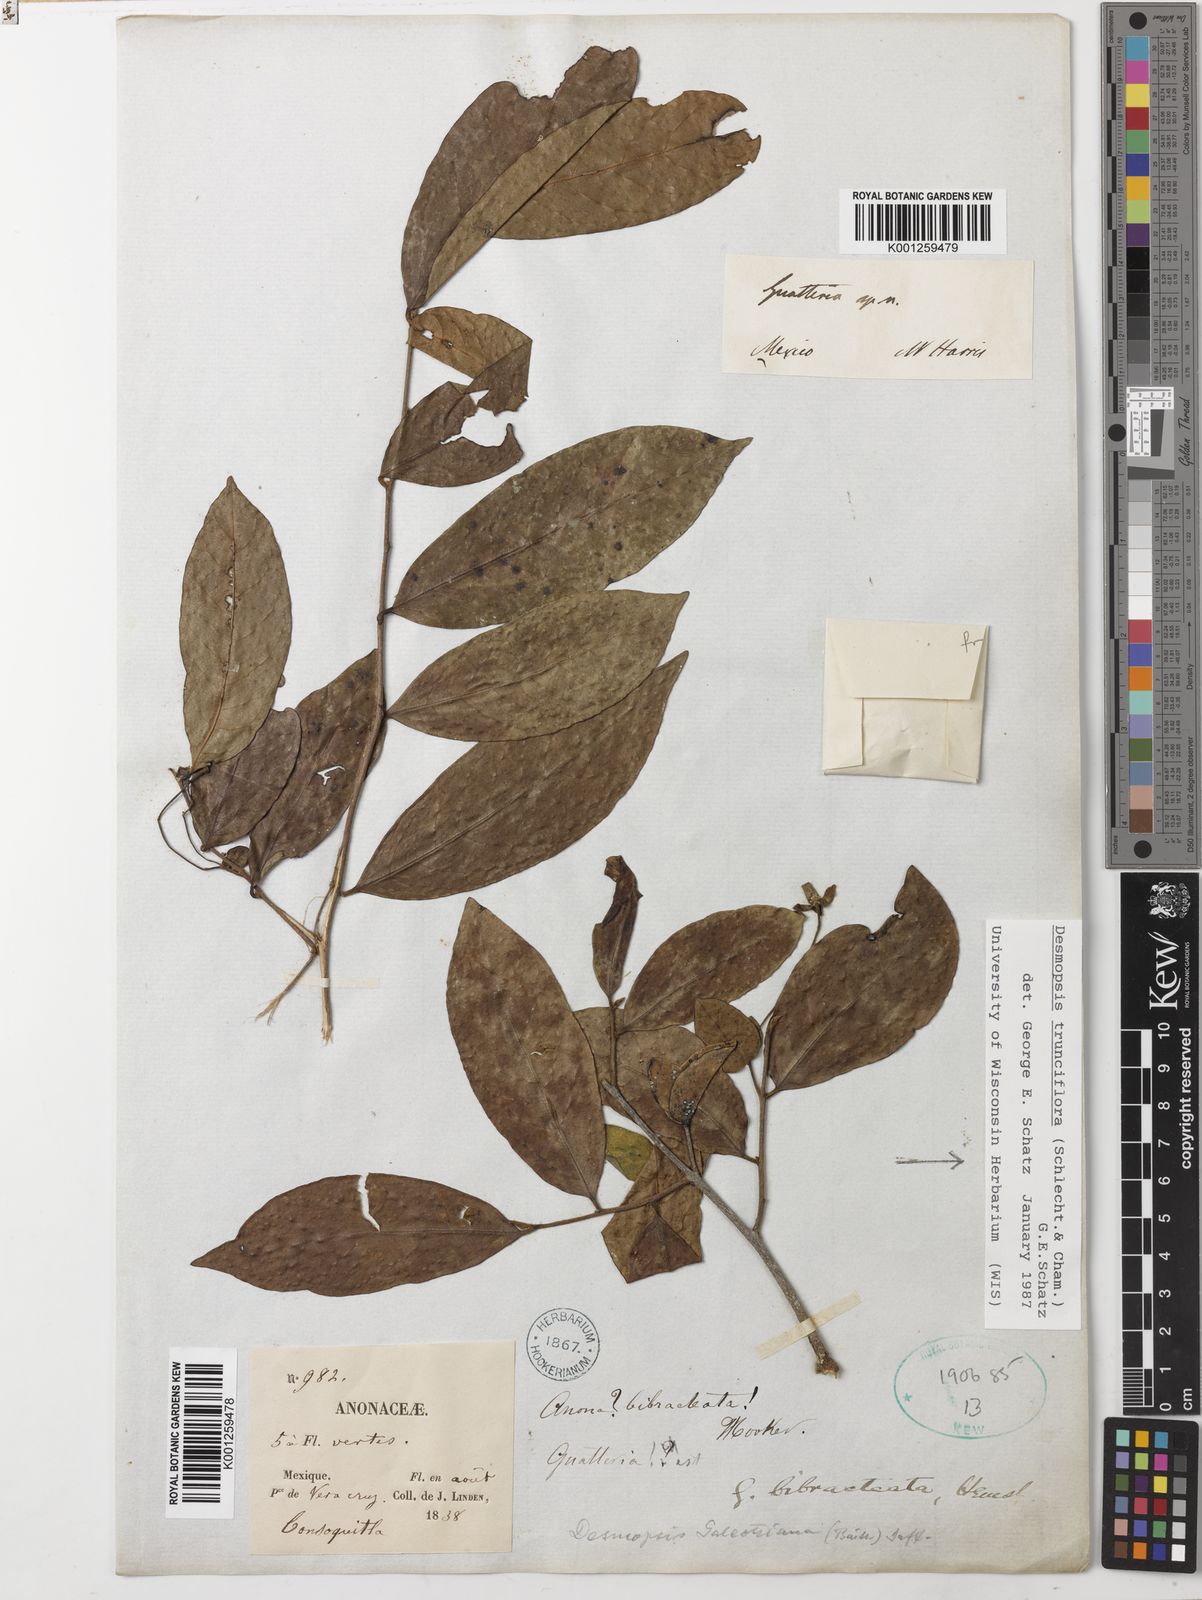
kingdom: Plantae
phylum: Tracheophyta
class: Magnoliopsida
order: Magnoliales
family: Annonaceae
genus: Desmopsis
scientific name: Desmopsis
